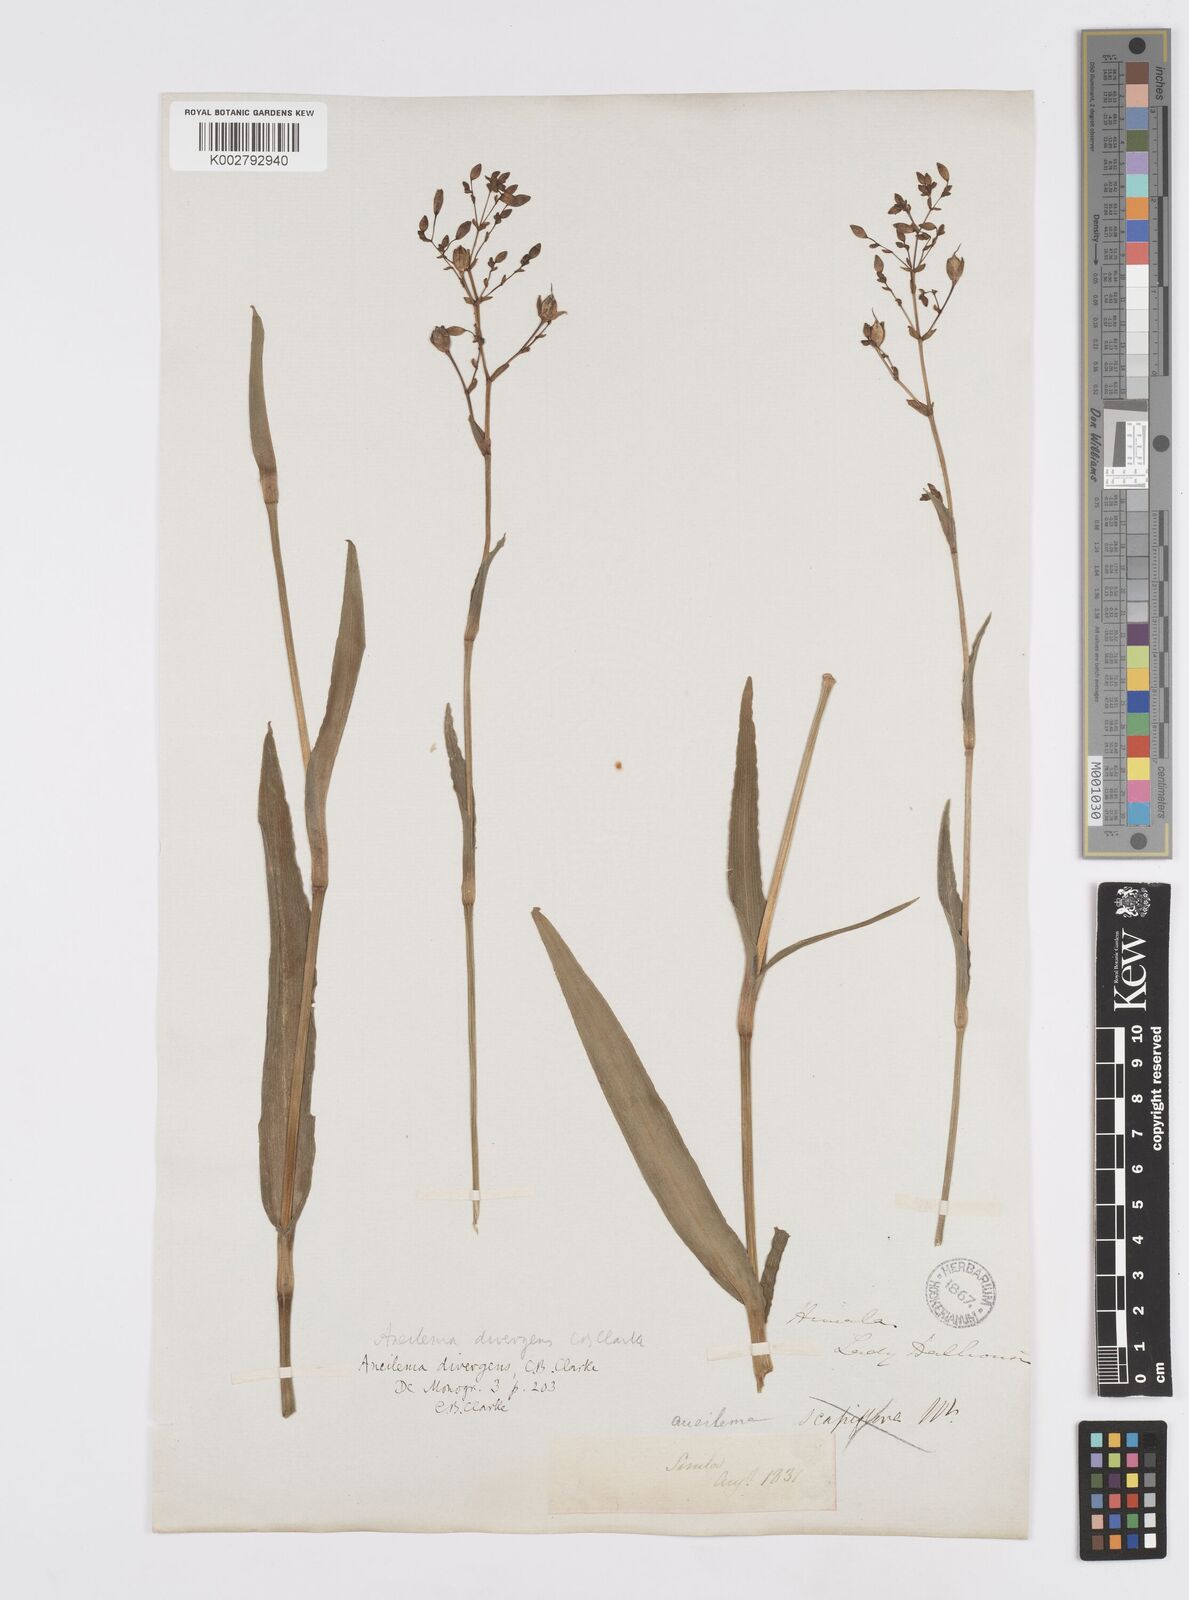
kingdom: Plantae
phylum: Tracheophyta
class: Liliopsida
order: Commelinales
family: Commelinaceae
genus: Murdannia
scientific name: Murdannia divergens
